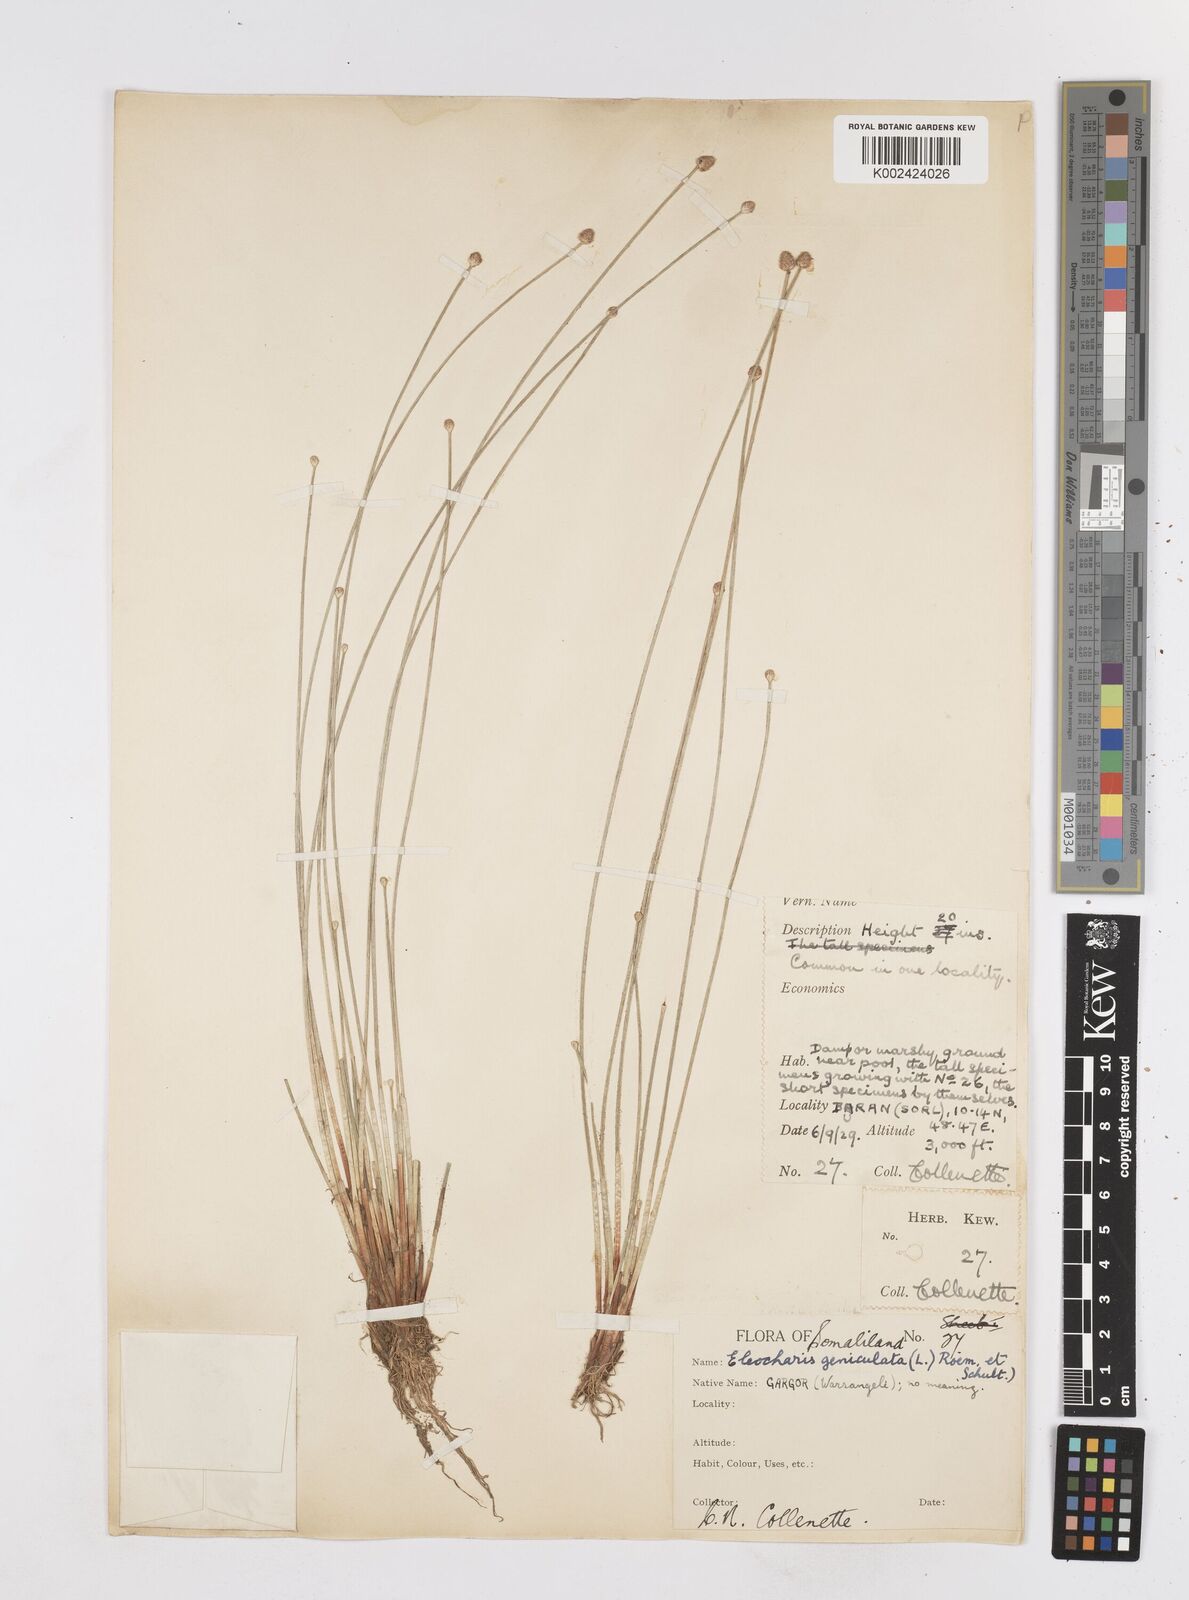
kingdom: Plantae
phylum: Tracheophyta
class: Liliopsida
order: Poales
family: Cyperaceae
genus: Eleocharis
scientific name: Eleocharis geniculata
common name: Canada spikesedge
